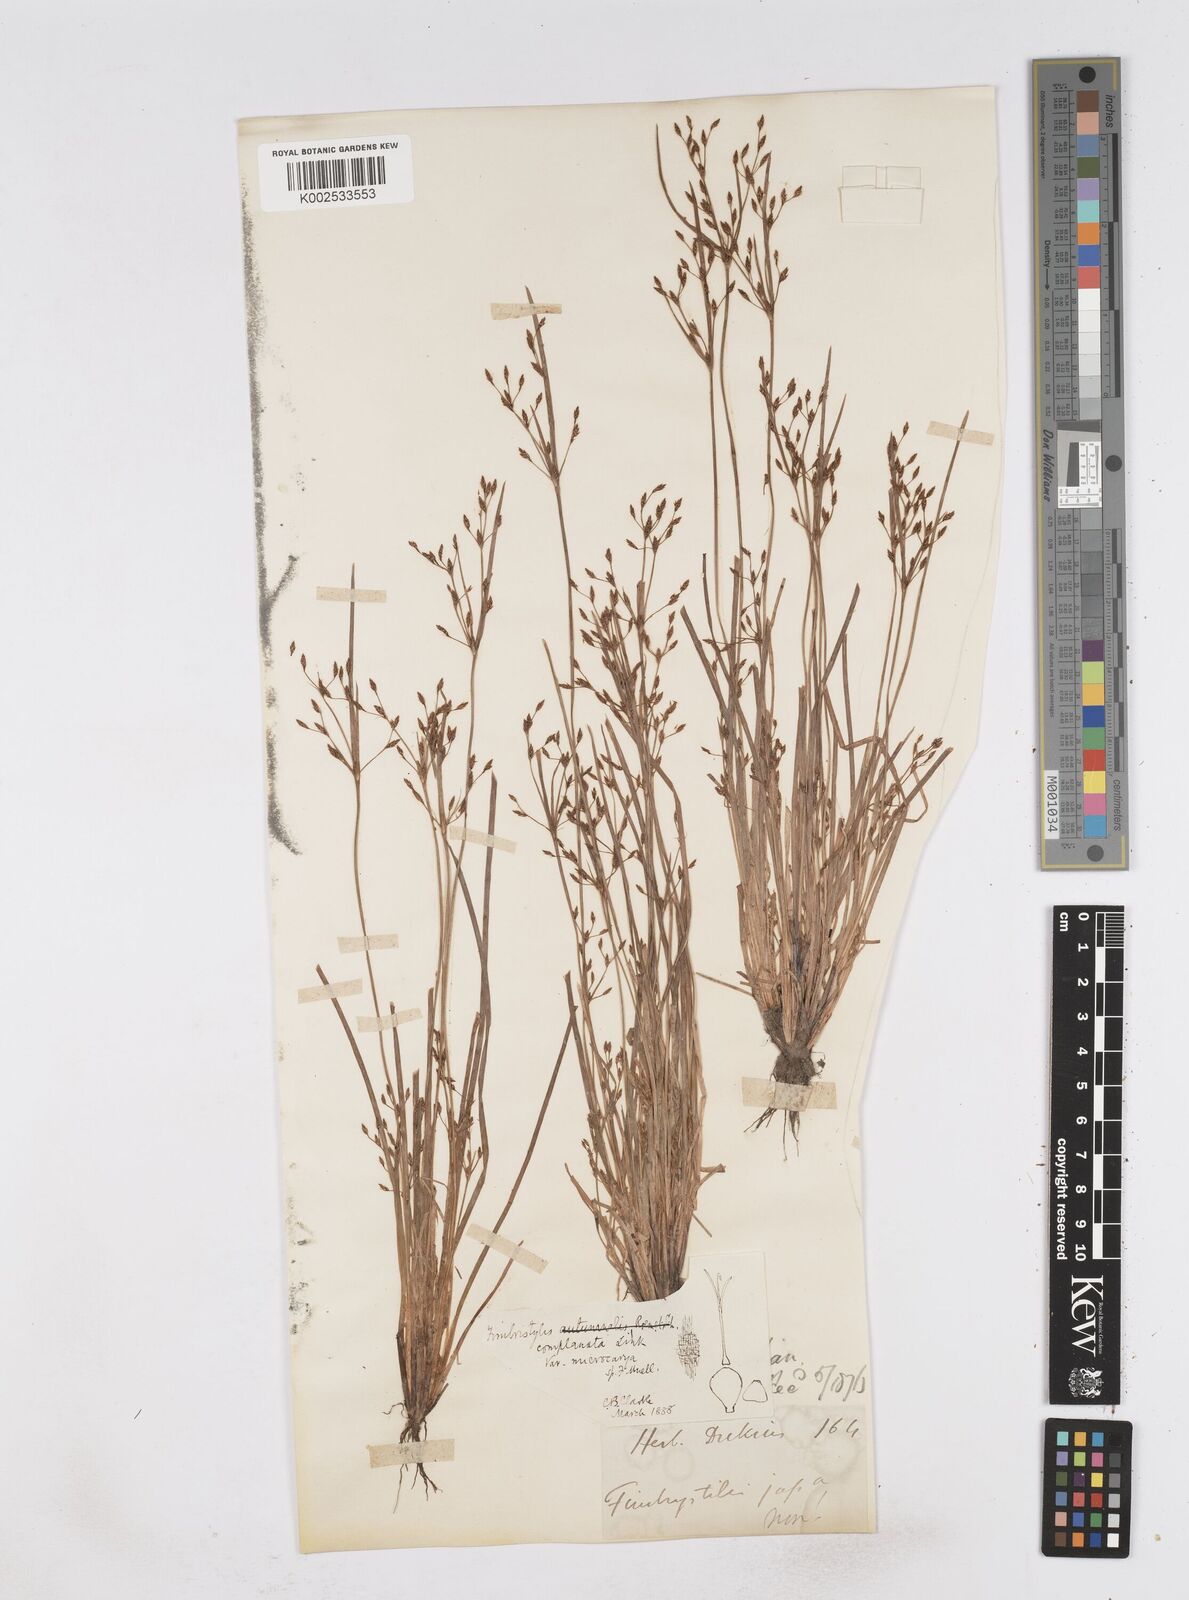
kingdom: Plantae
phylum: Tracheophyta
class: Liliopsida
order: Poales
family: Cyperaceae
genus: Fimbristylis
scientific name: Fimbristylis complanata
